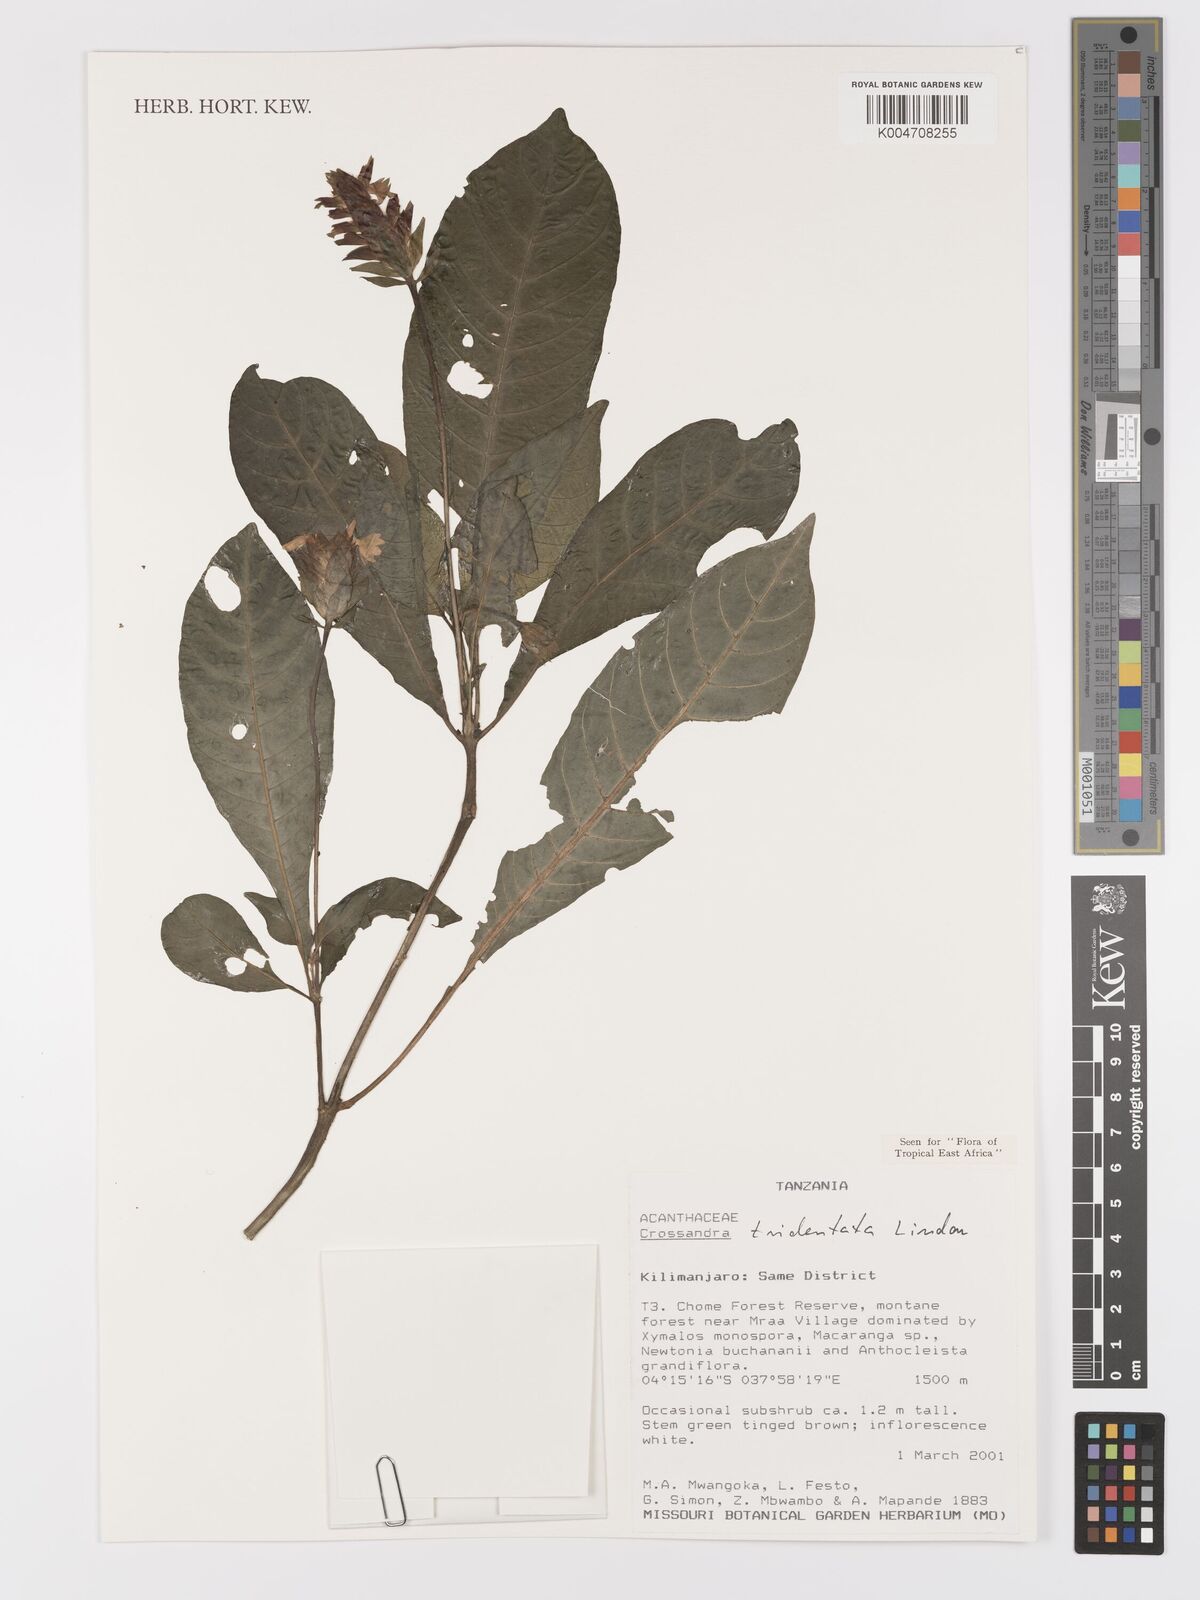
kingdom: Plantae
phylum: Tracheophyta
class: Magnoliopsida
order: Lamiales
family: Acanthaceae
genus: Crossandra
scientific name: Crossandra tridentata
